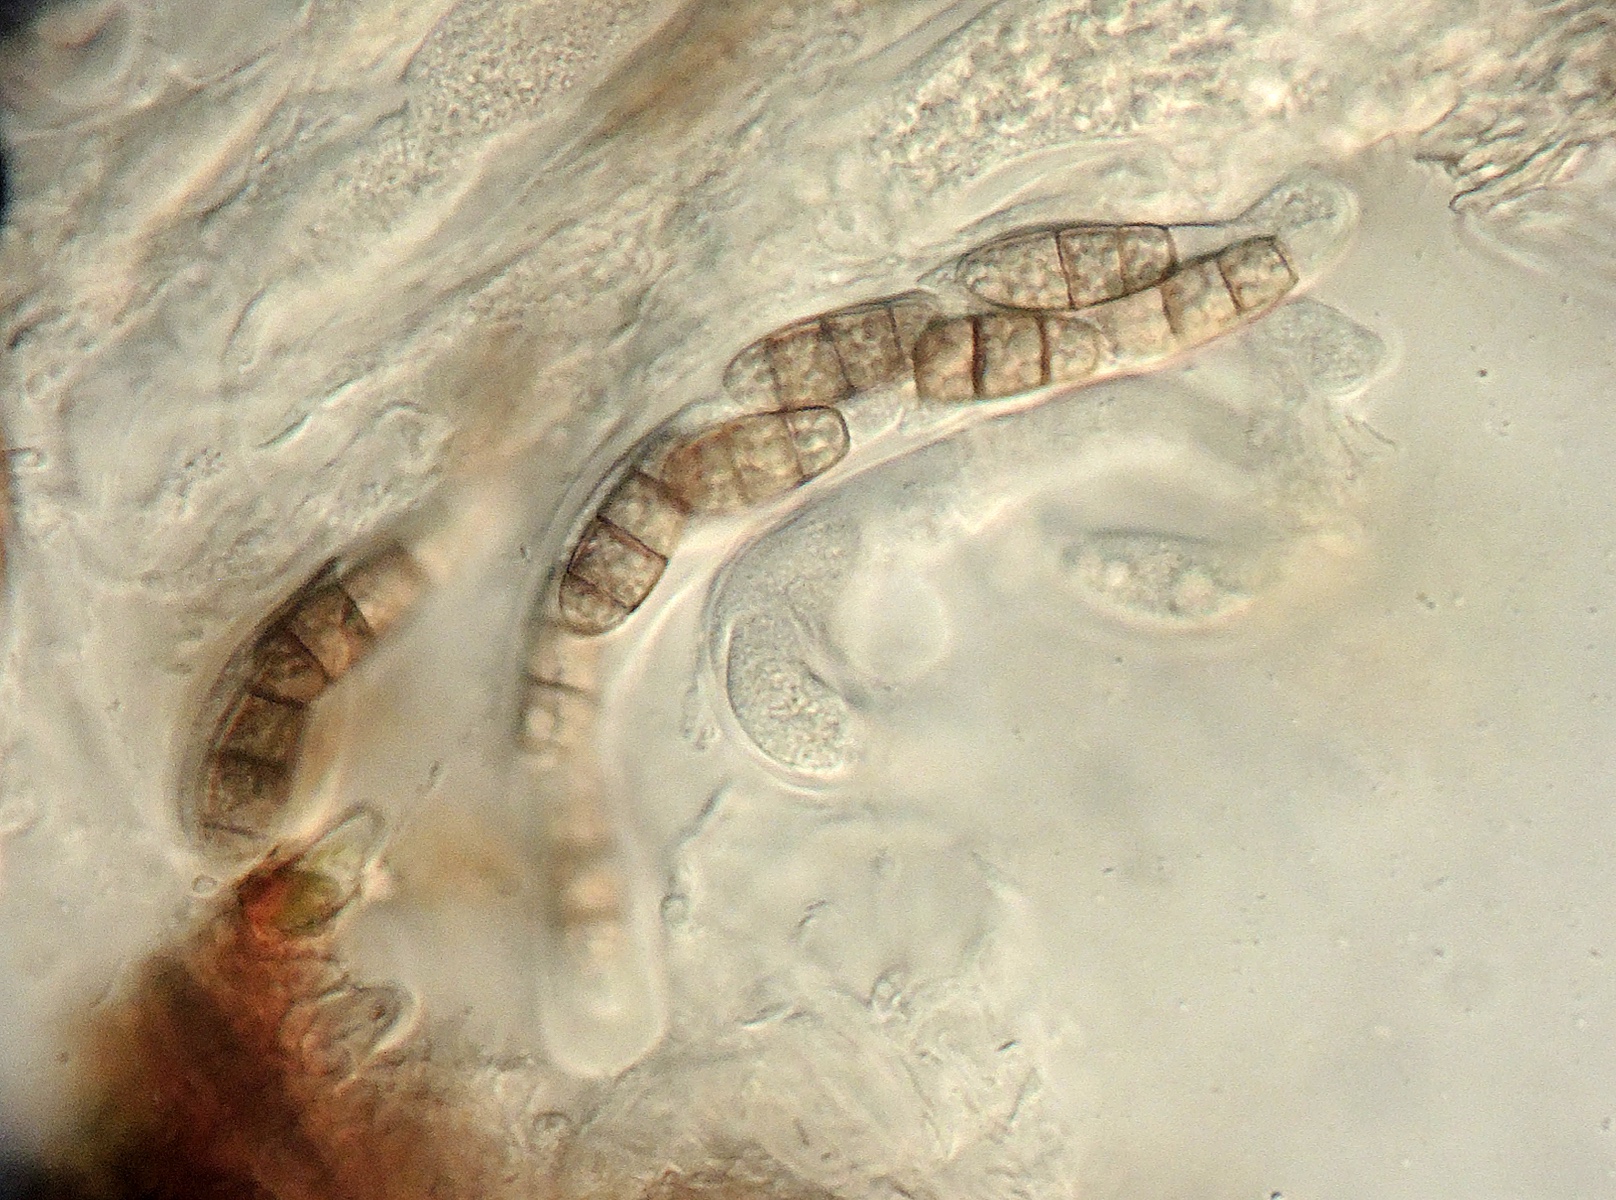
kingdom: Fungi
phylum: Ascomycota
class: Dothideomycetes
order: Tubeufiales
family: Tubeufiaceae
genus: Rebentischia
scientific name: Rebentischia unicaudata
